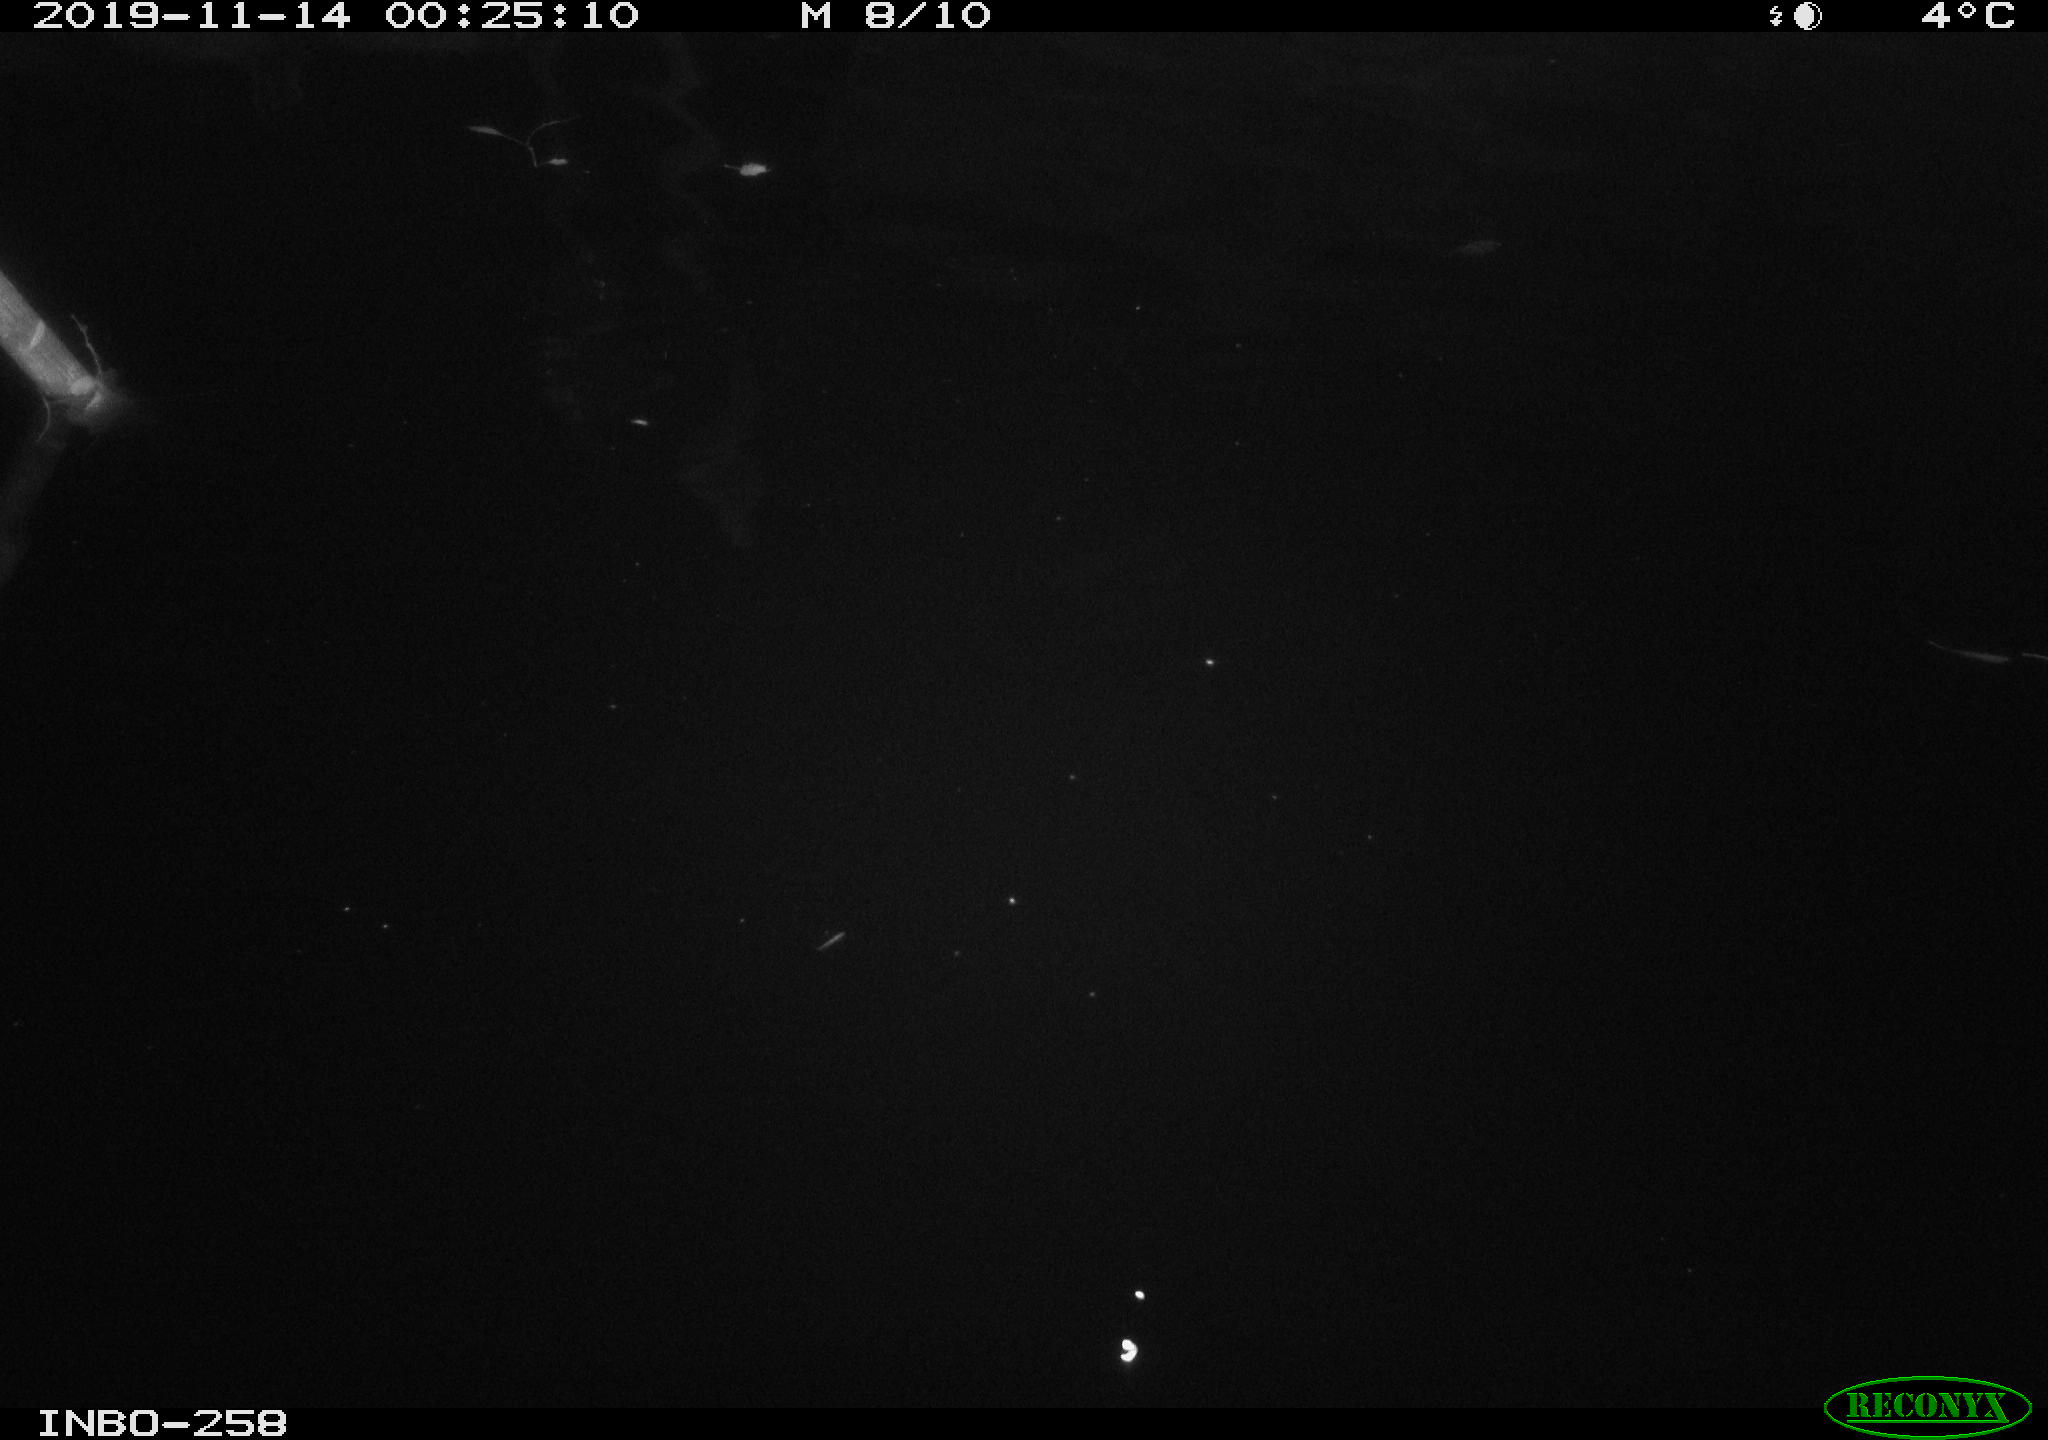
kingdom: Animalia
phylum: Chordata
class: Aves
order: Anseriformes
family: Anatidae
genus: Anas
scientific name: Anas platyrhynchos
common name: Mallard
